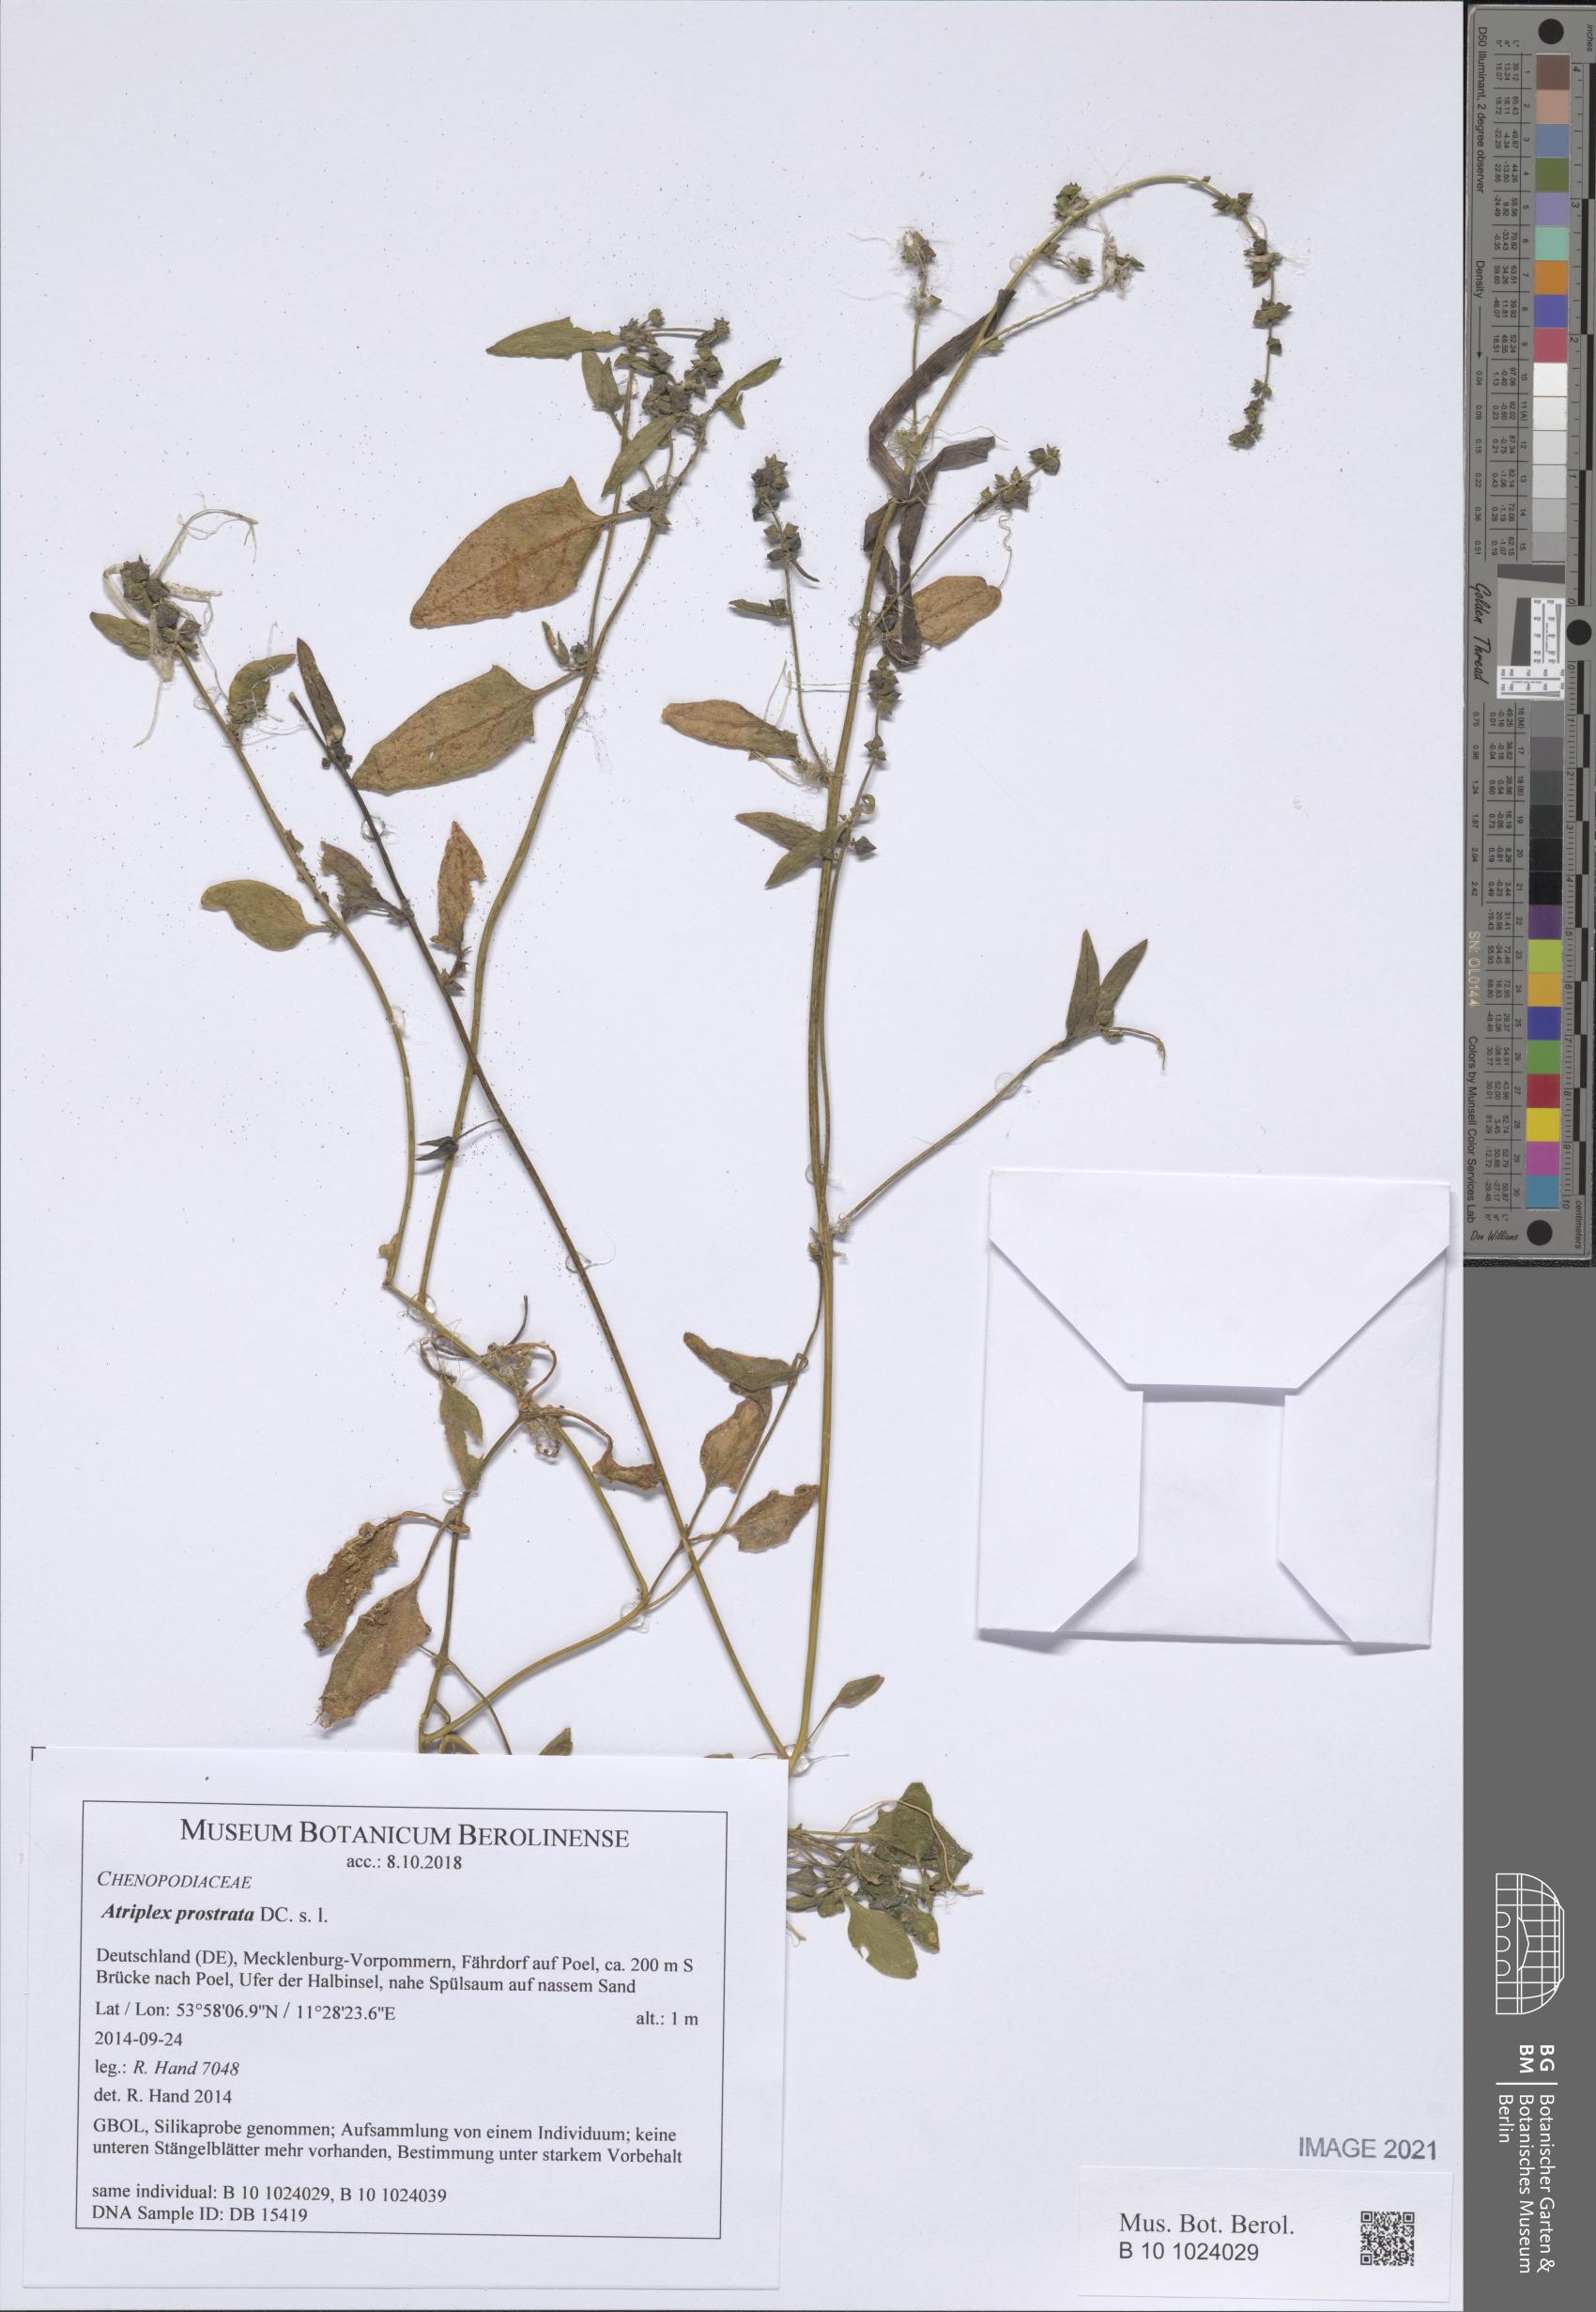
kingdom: Plantae
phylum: Tracheophyta
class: Magnoliopsida
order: Caryophyllales
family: Amaranthaceae
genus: Atriplex
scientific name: Atriplex prostrata
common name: Spear-leaved orache
